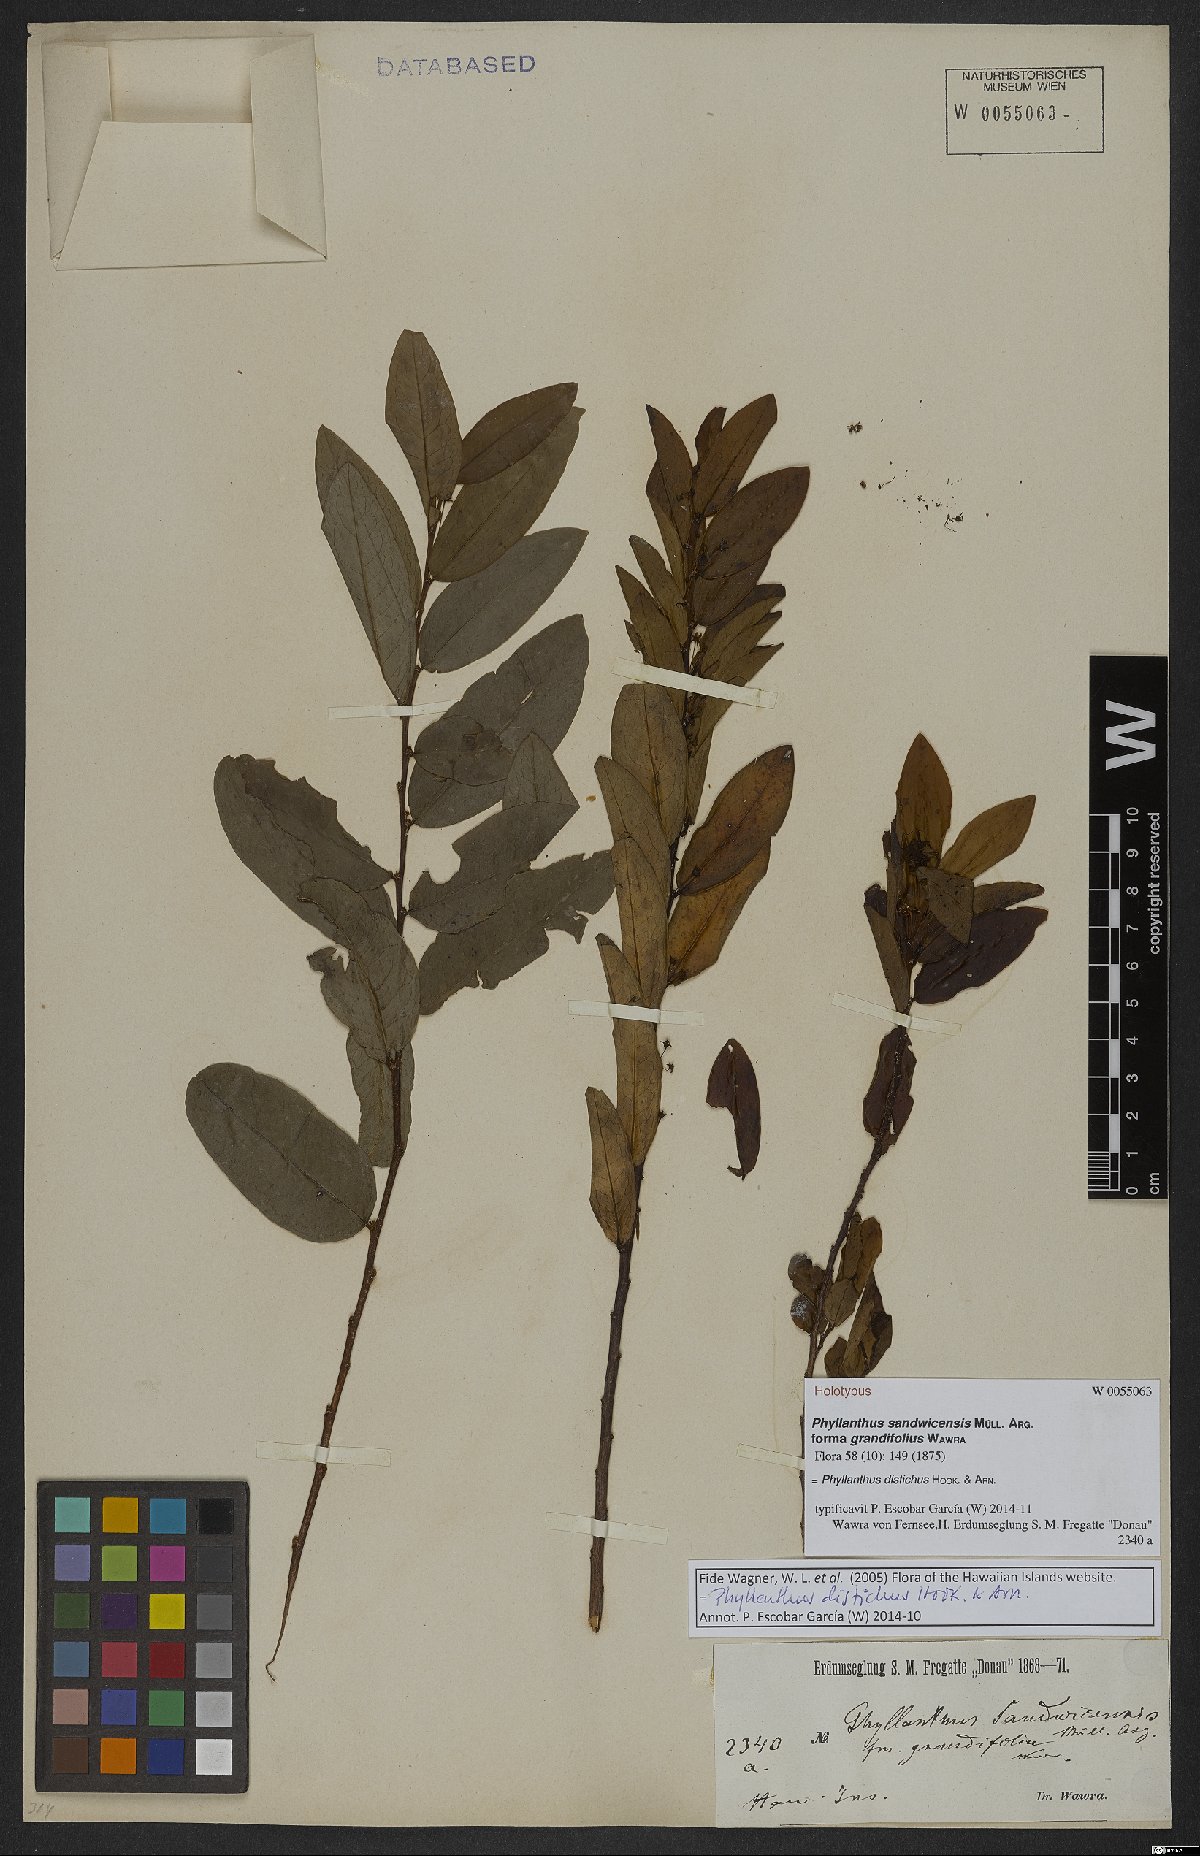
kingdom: Plantae
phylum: Tracheophyta
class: Magnoliopsida
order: Malpighiales
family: Phyllanthaceae
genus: Phyllanthus
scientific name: Phyllanthus distichus
